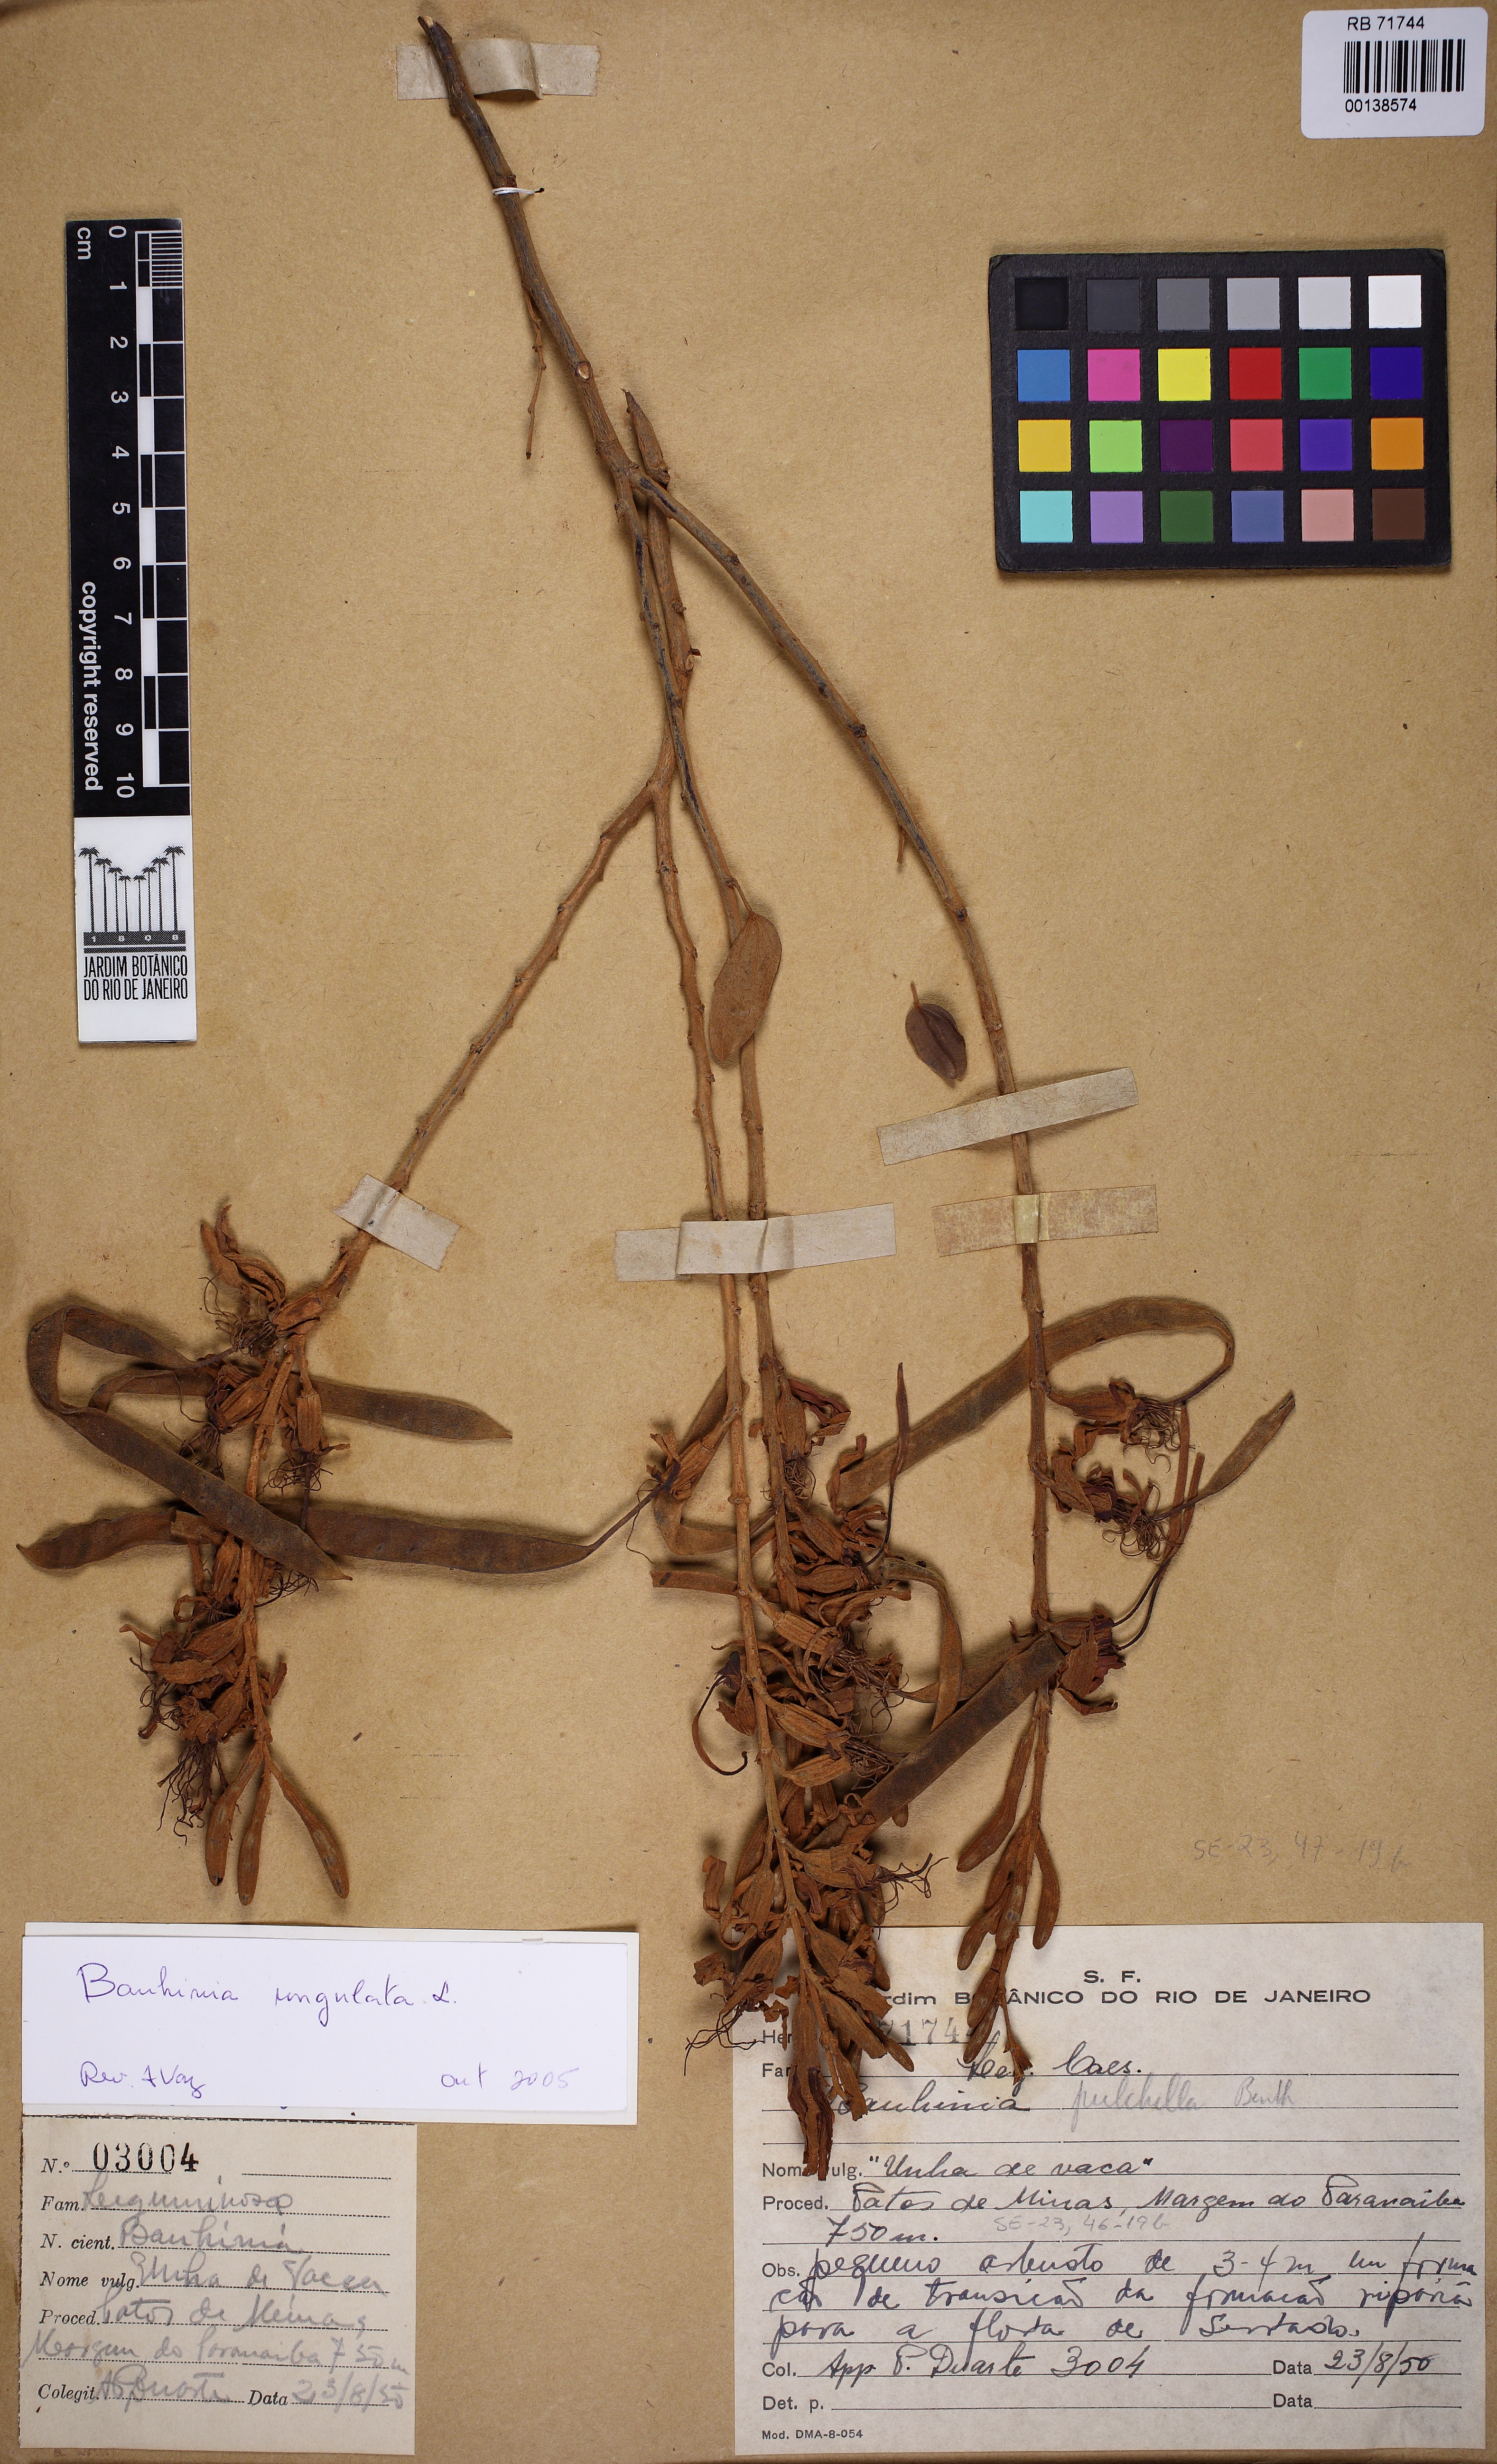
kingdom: Plantae
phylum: Tracheophyta
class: Magnoliopsida
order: Fabales
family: Fabaceae
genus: Bauhinia
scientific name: Bauhinia ungulata
